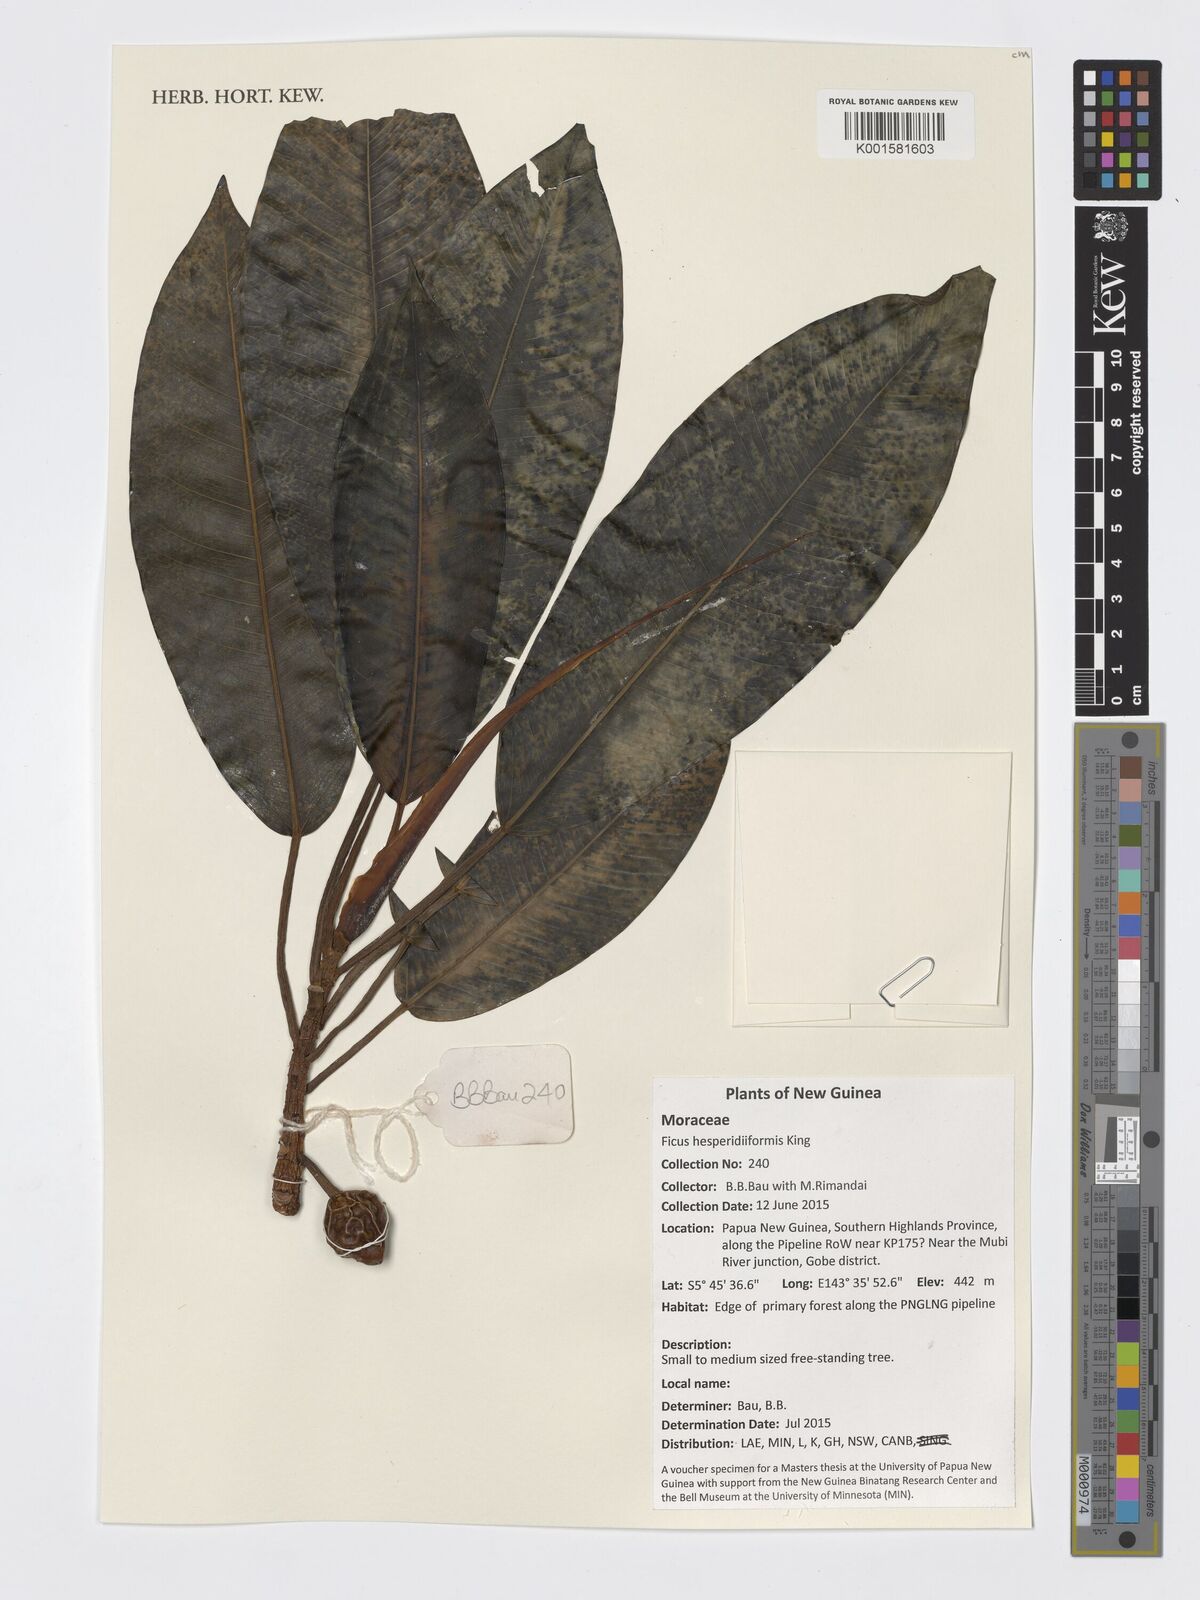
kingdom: Plantae
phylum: Tracheophyta
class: Magnoliopsida
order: Rosales
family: Moraceae
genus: Ficus
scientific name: Ficus hesperidiiformis
